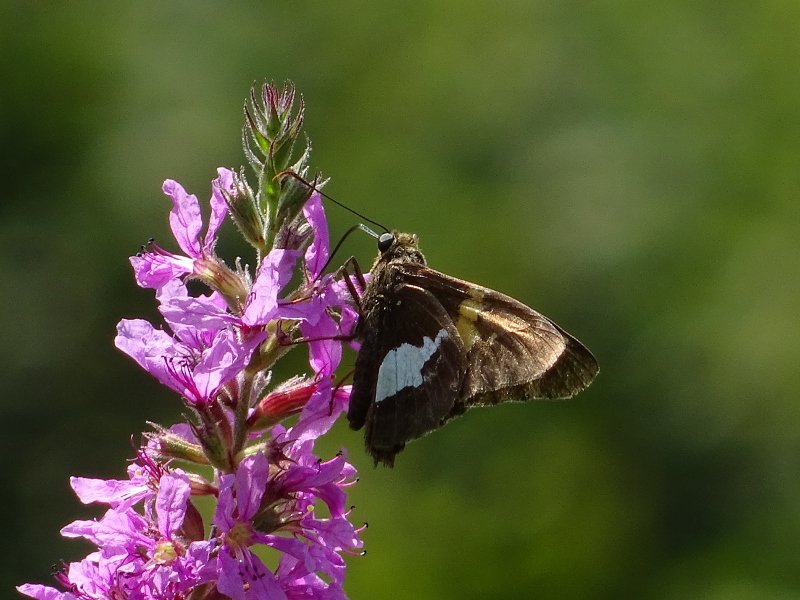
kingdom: Animalia
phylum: Arthropoda
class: Insecta
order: Lepidoptera
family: Hesperiidae
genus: Epargyreus
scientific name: Epargyreus clarus
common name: Silver-spotted Skipper
